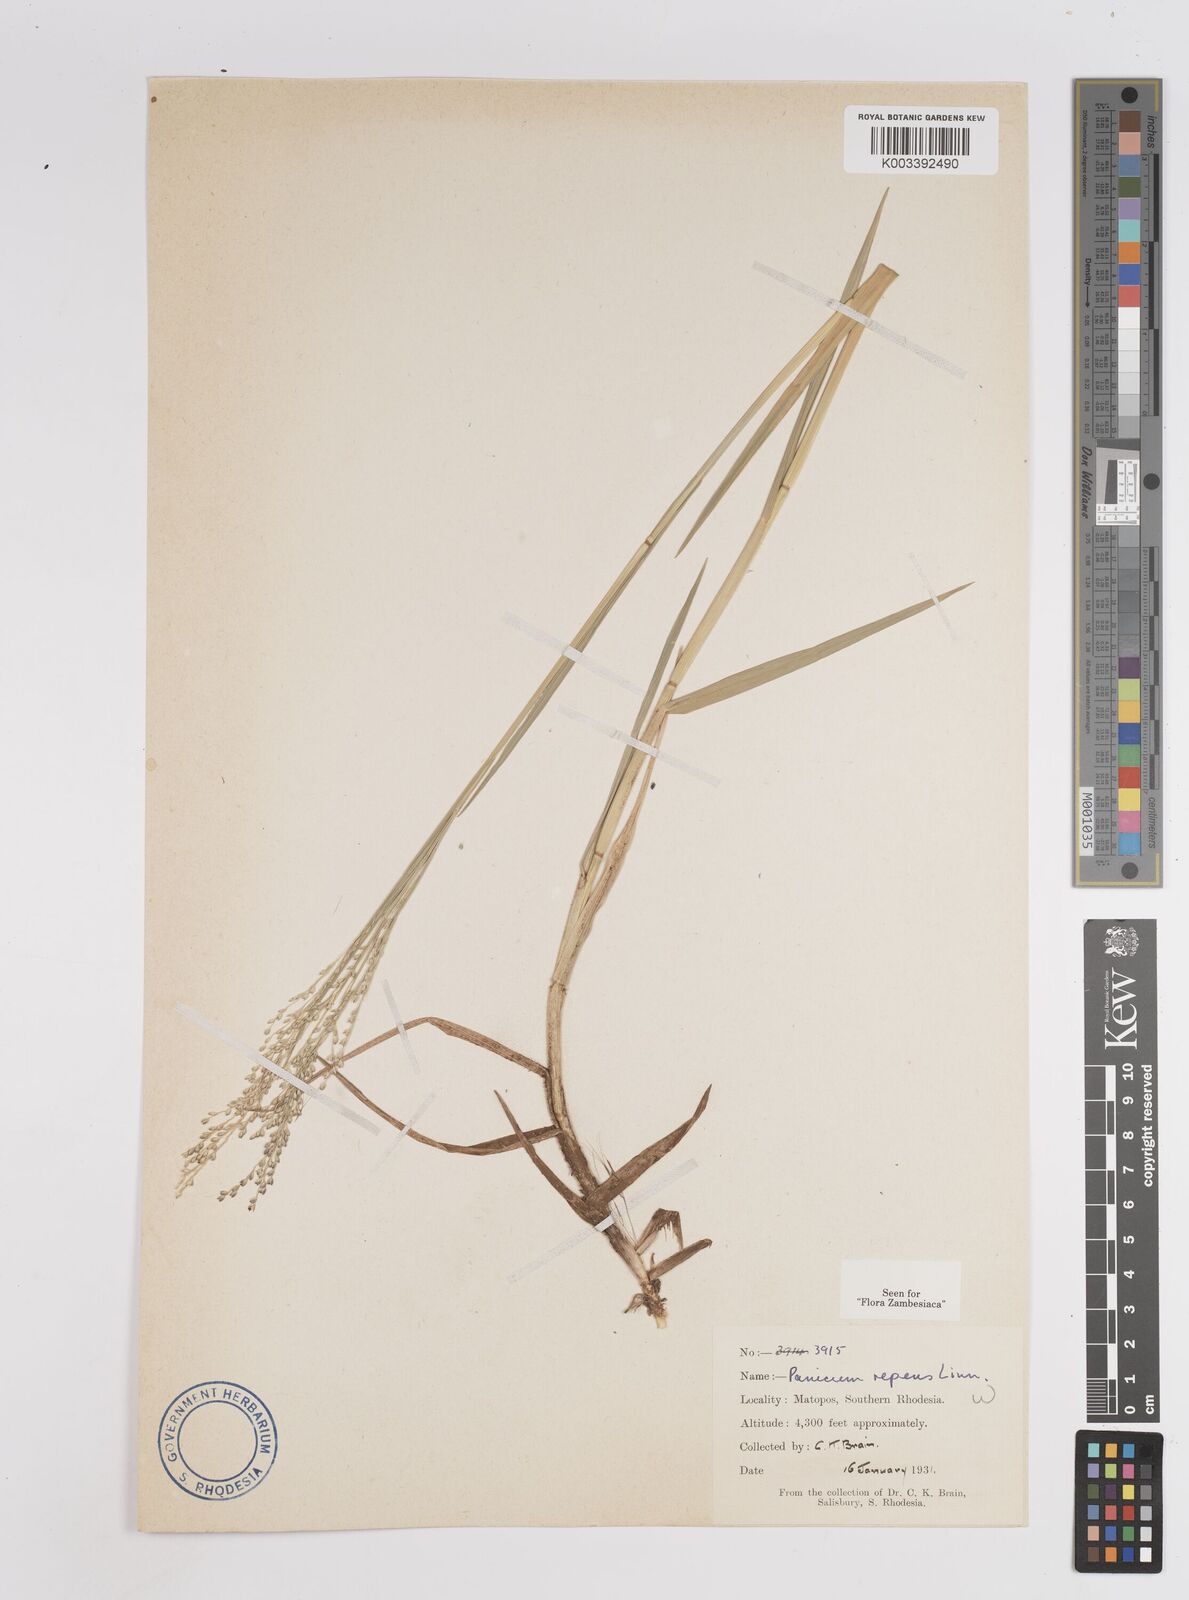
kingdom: Plantae
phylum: Tracheophyta
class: Liliopsida
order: Poales
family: Poaceae
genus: Panicum
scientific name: Panicum repens
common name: Torpedo grass
